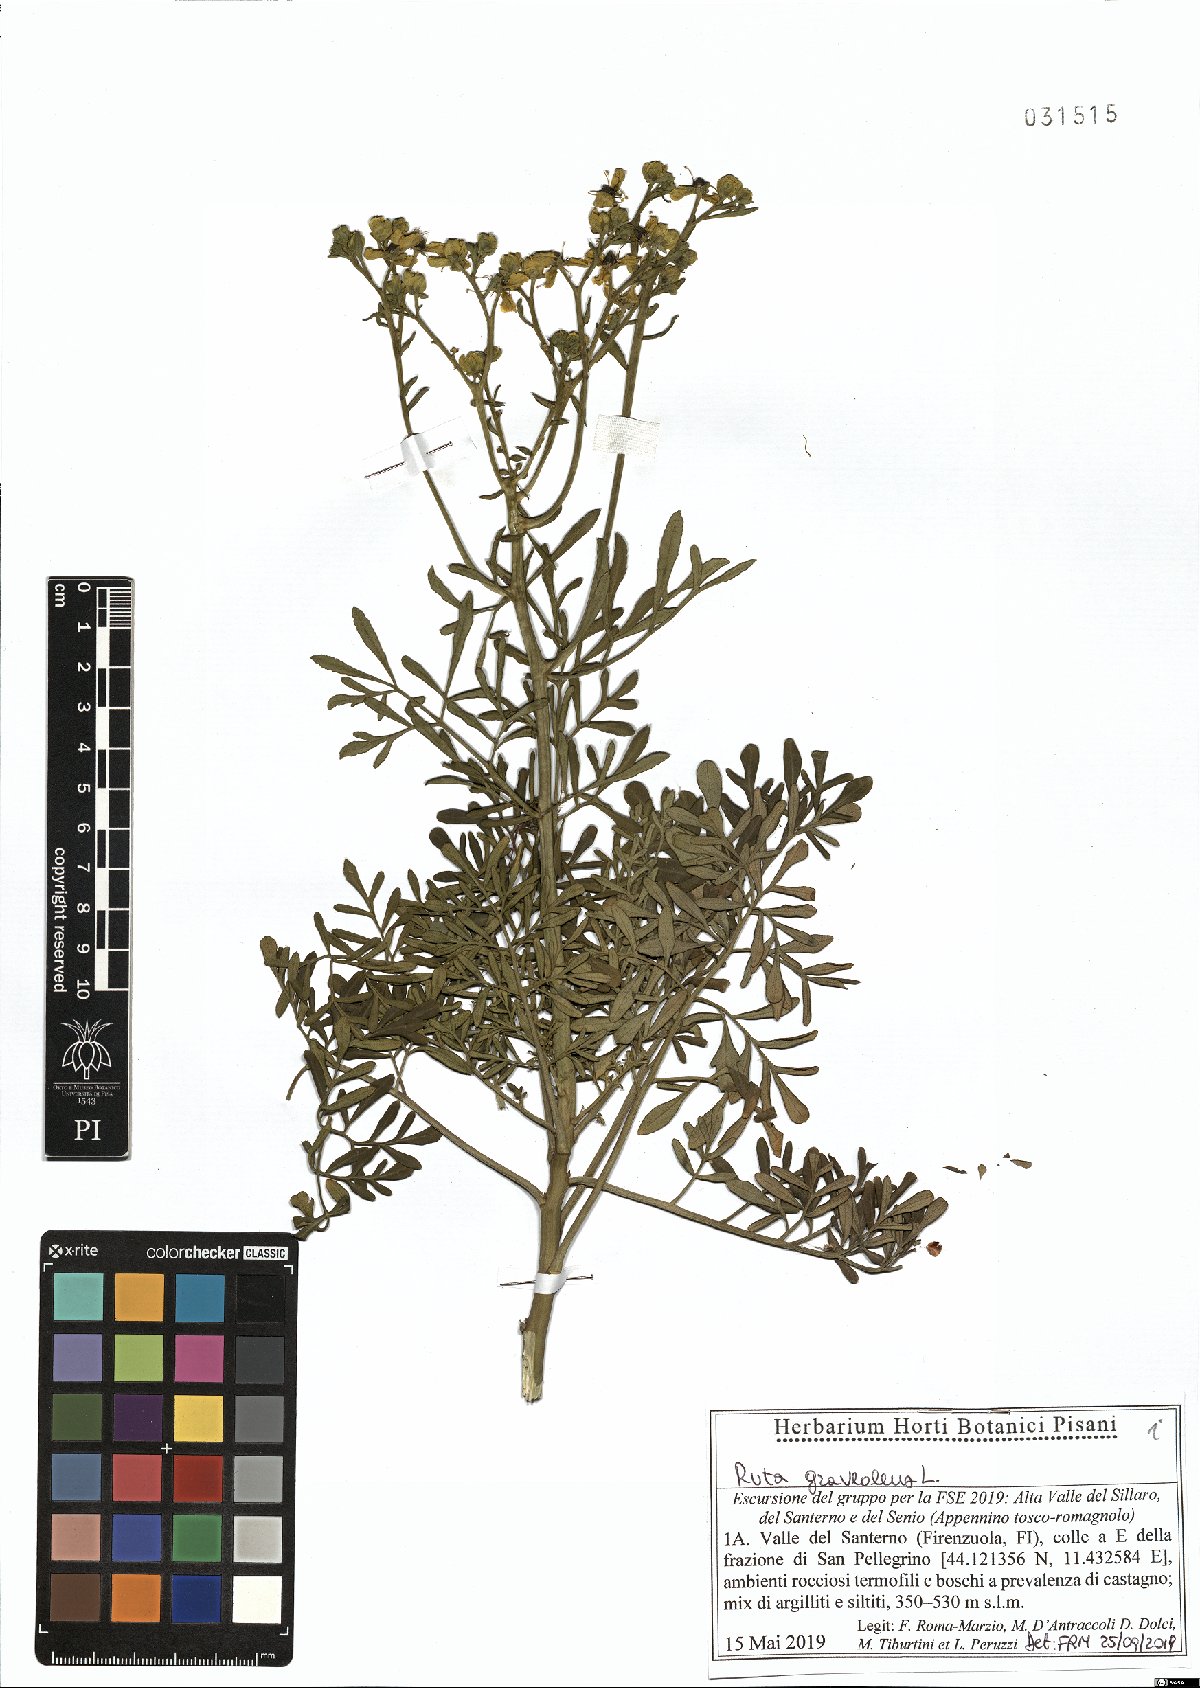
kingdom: Plantae
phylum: Tracheophyta
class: Magnoliopsida
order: Sapindales
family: Rutaceae
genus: Ruta
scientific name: Ruta graveolens
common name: Common rue
